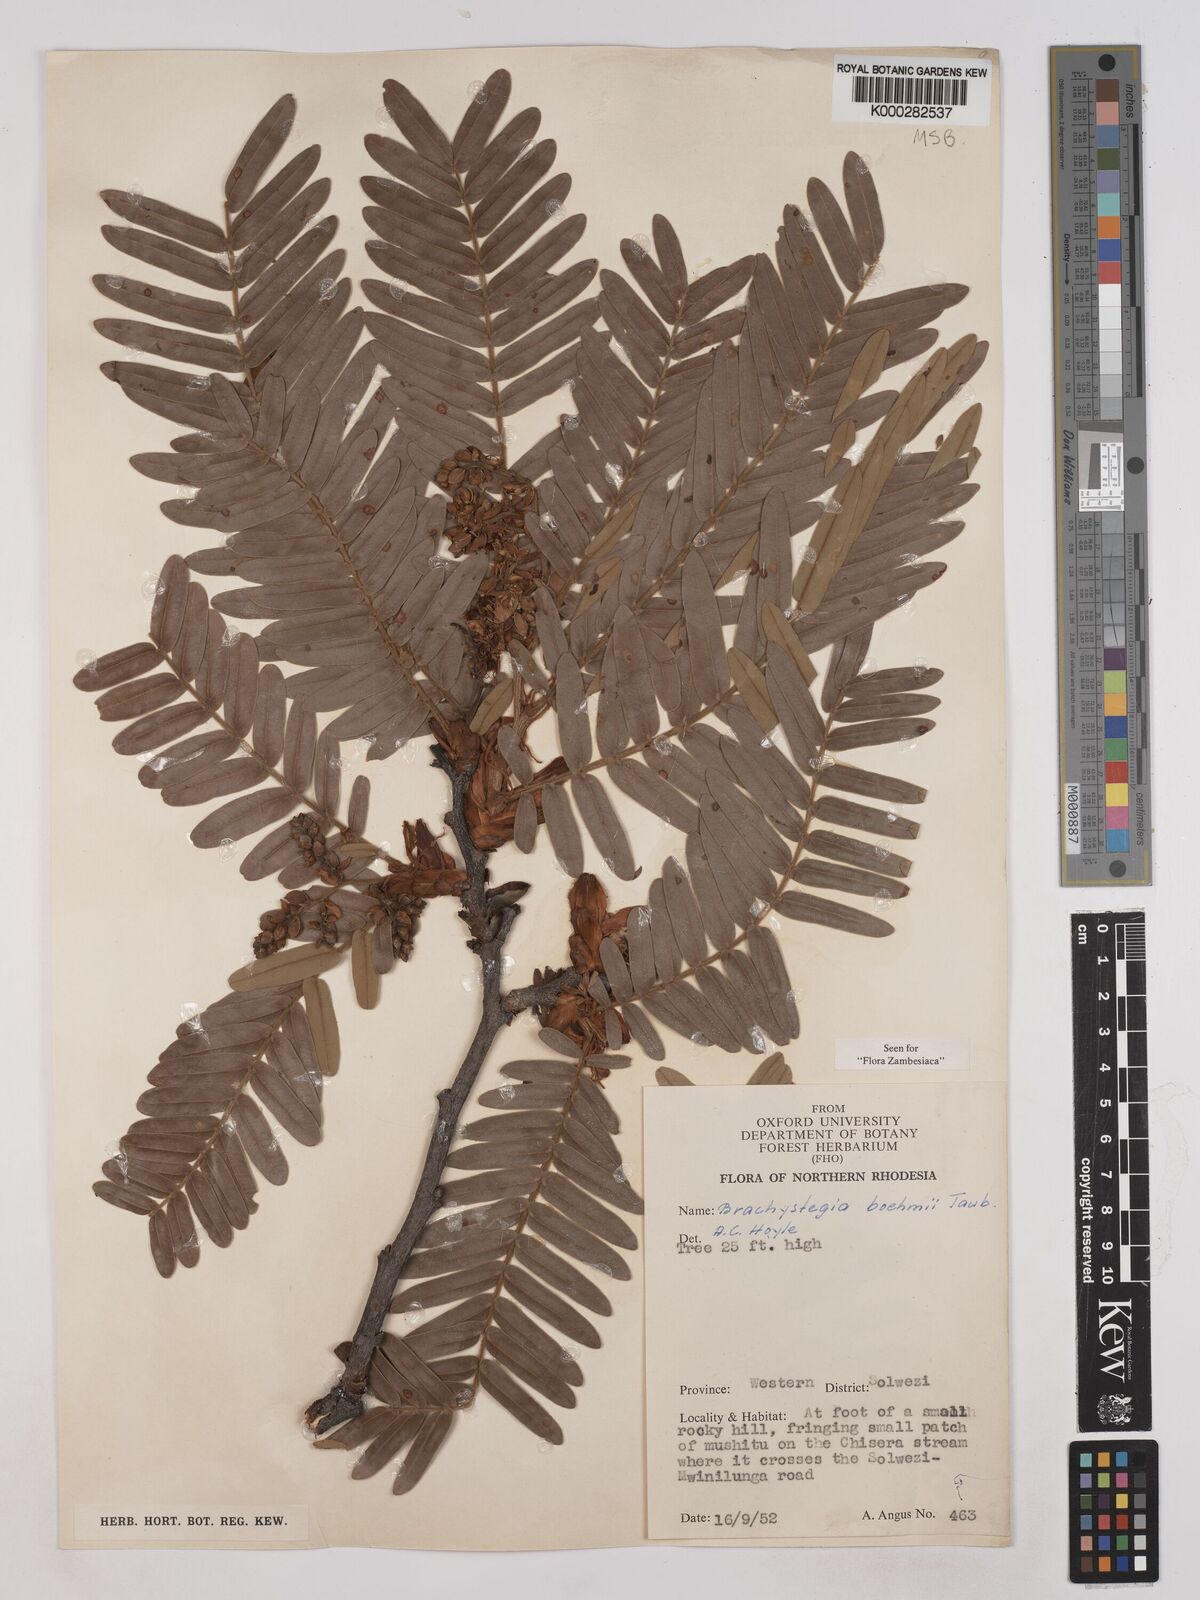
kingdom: Plantae
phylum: Tracheophyta
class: Magnoliopsida
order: Fabales
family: Fabaceae
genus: Brachystegia
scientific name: Brachystegia boehmii
